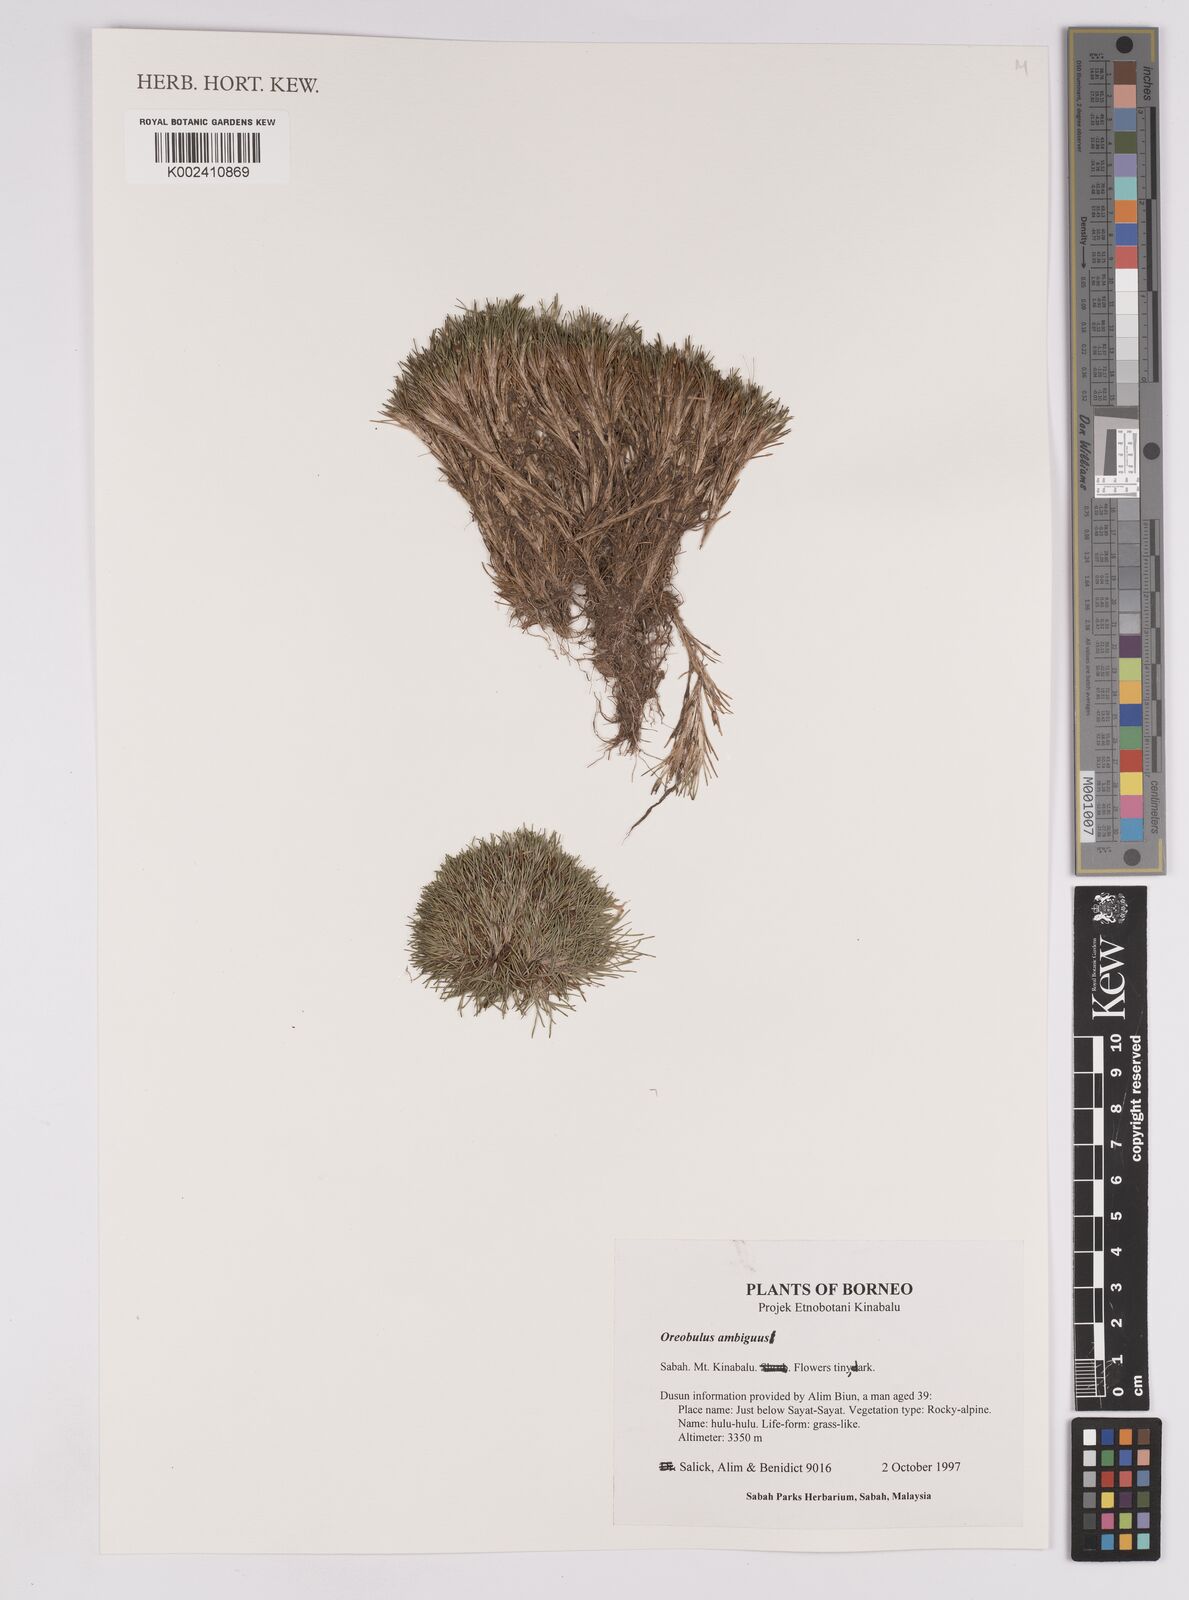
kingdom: Plantae
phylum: Tracheophyta
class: Liliopsida
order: Poales
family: Cyperaceae
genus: Oreobolus
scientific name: Oreobolus ambiguus
